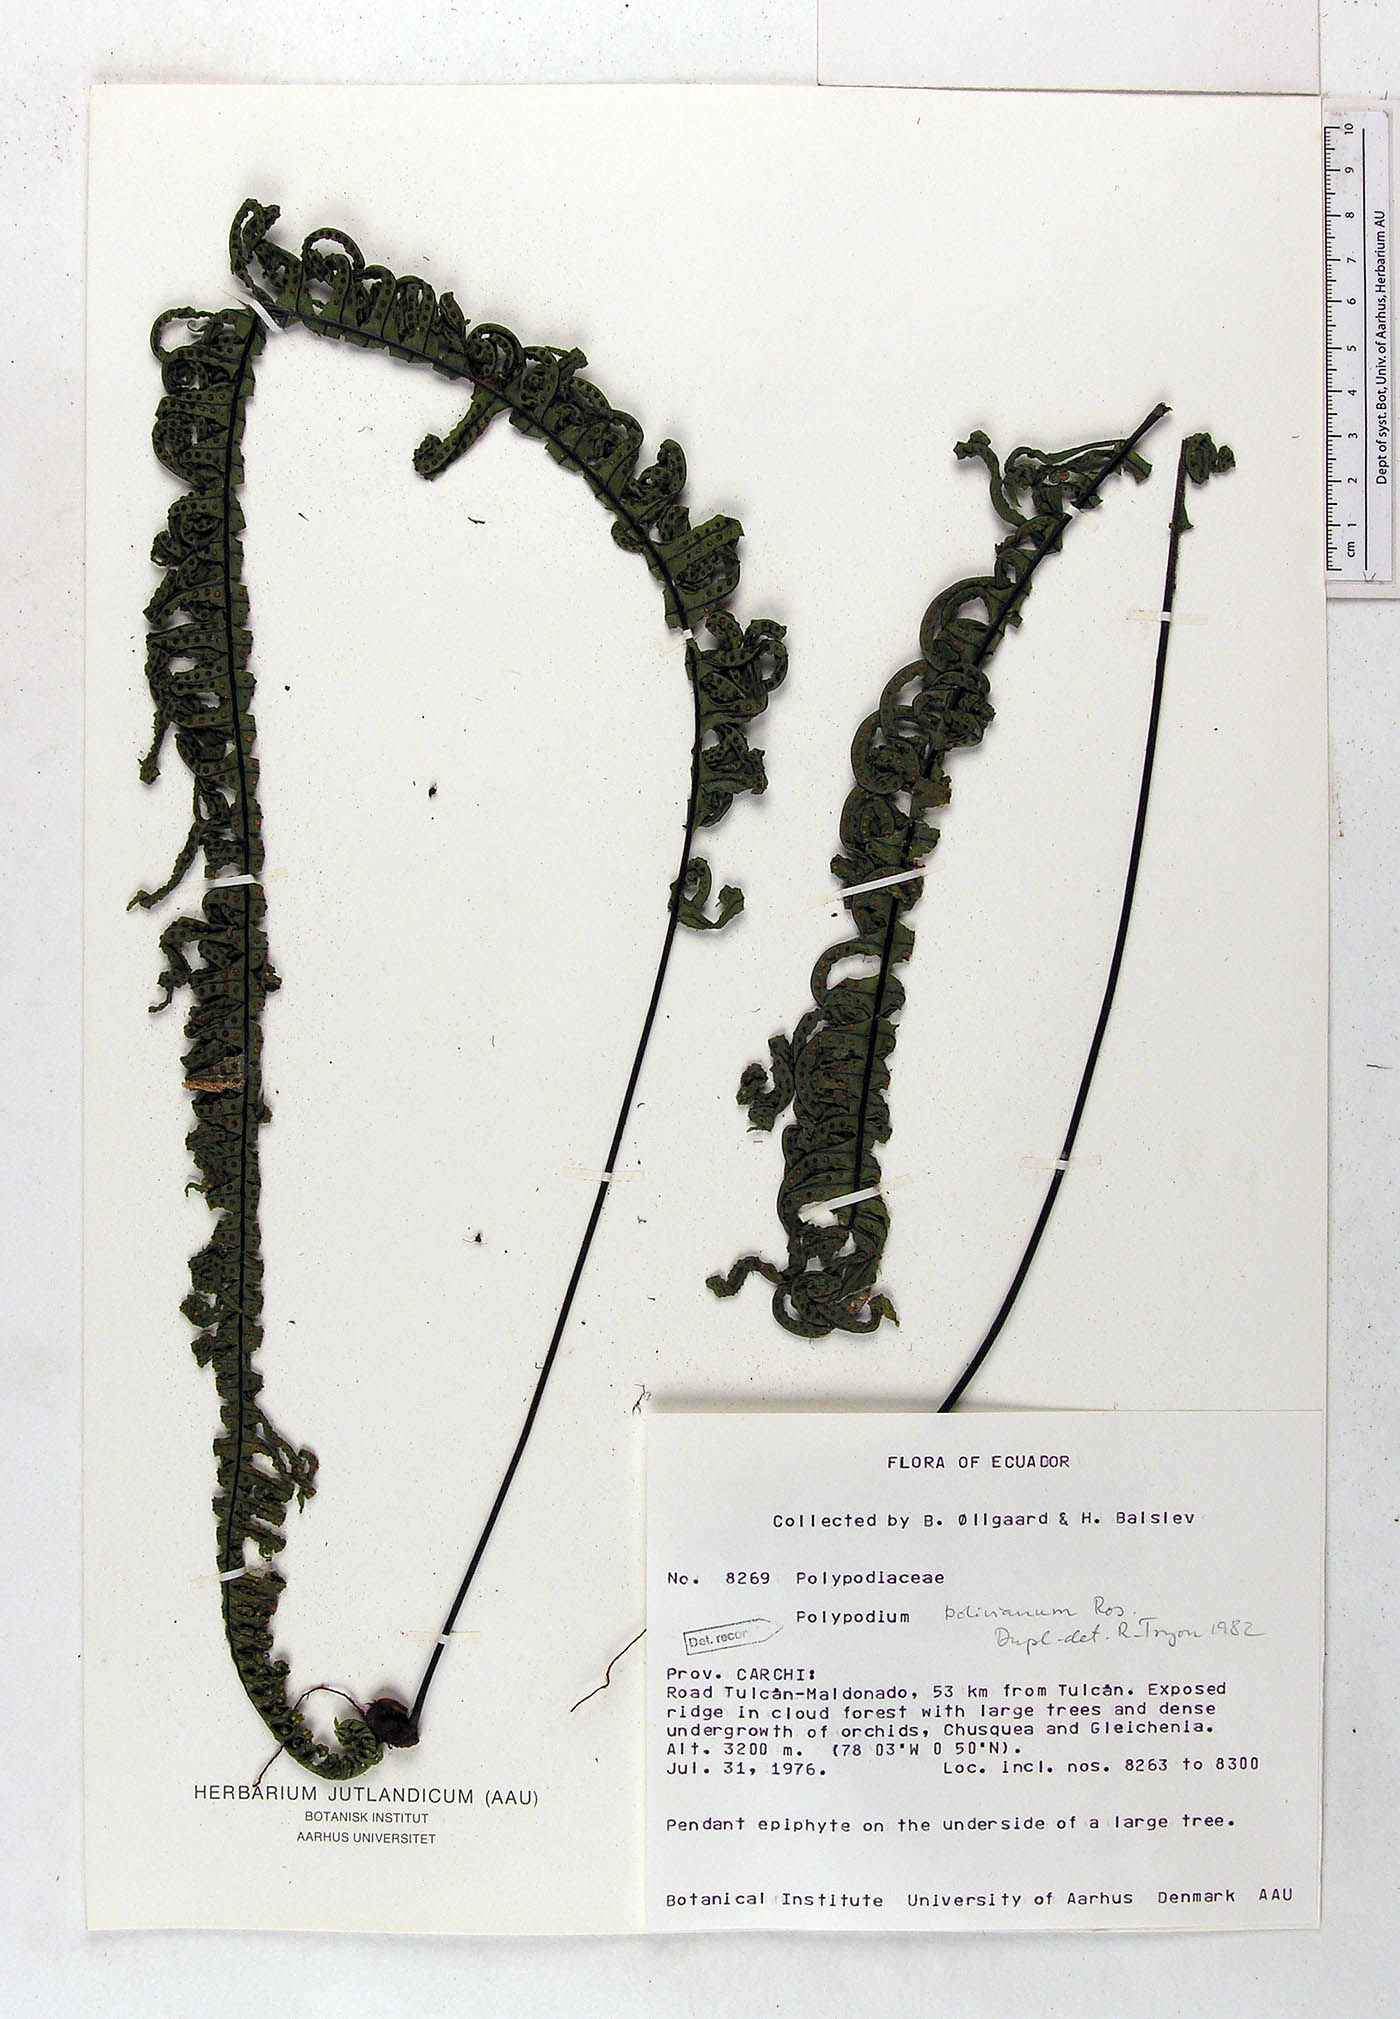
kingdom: Plantae
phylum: Tracheophyta
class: Polypodiopsida
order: Polypodiales
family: Polypodiaceae
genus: Pecluma
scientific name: Pecluma divaricata
